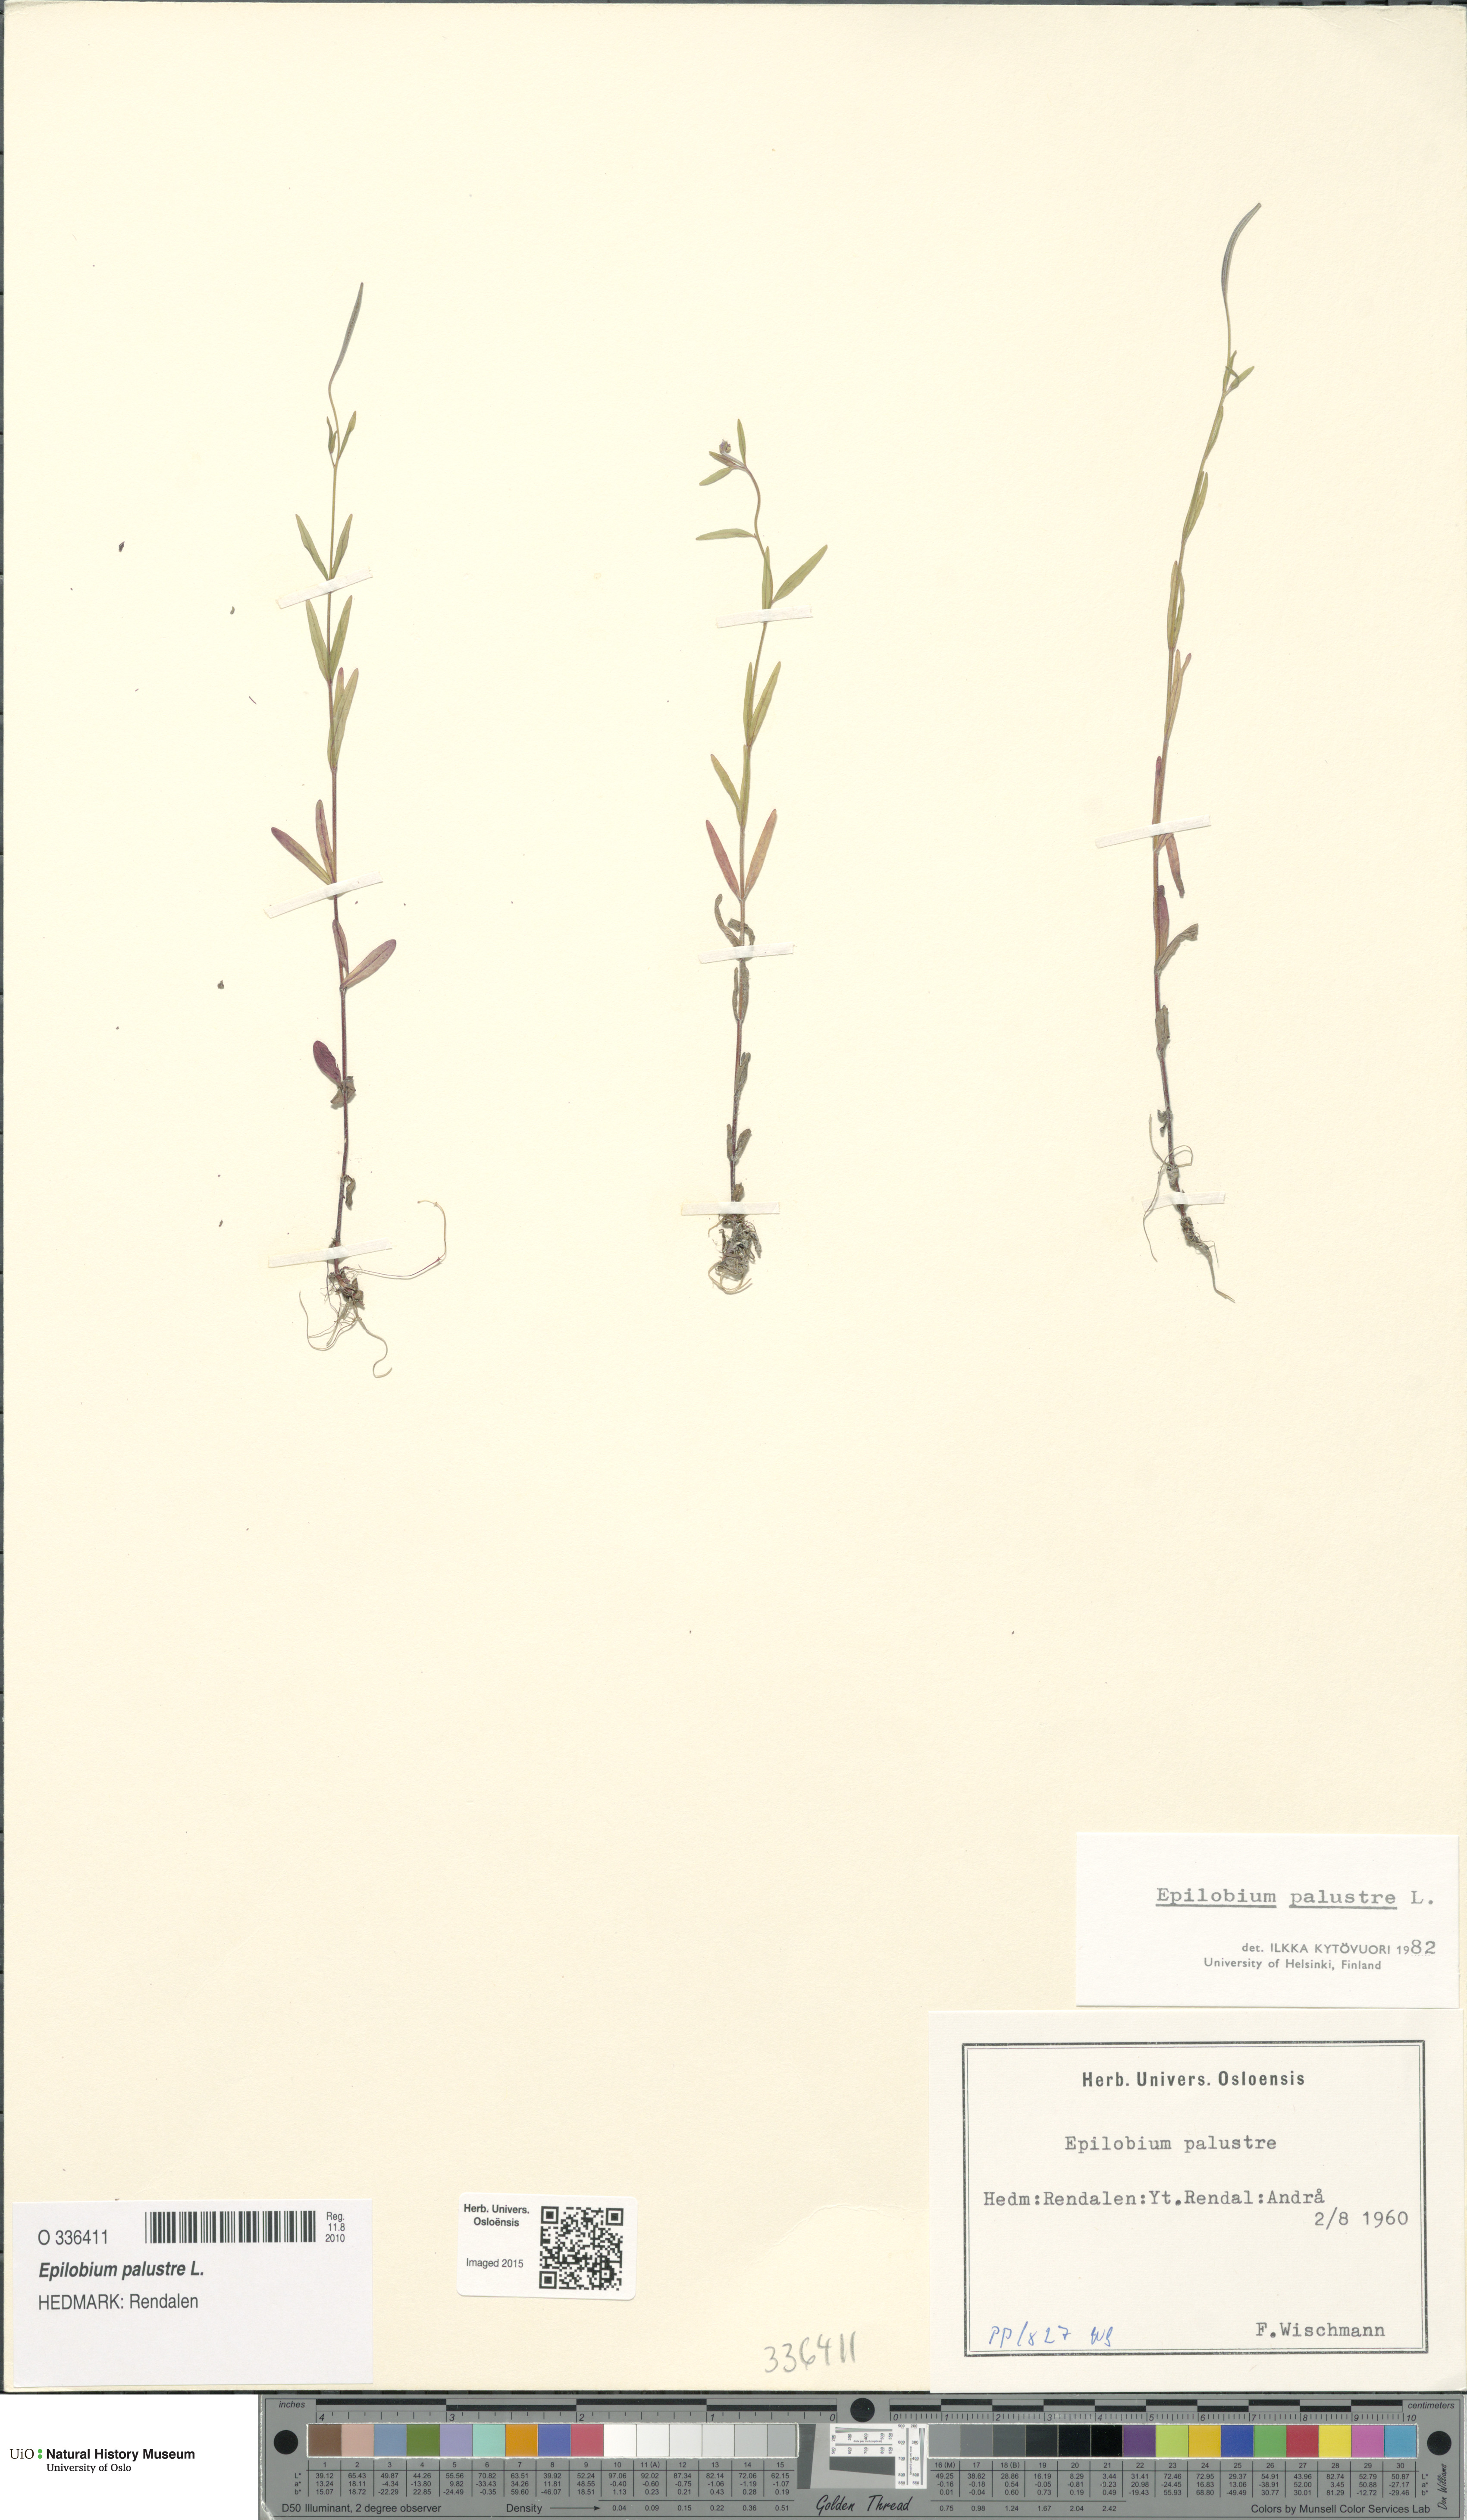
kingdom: Plantae
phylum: Tracheophyta
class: Magnoliopsida
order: Myrtales
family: Onagraceae
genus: Epilobium
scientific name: Epilobium palustre
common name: Marsh willowherb
